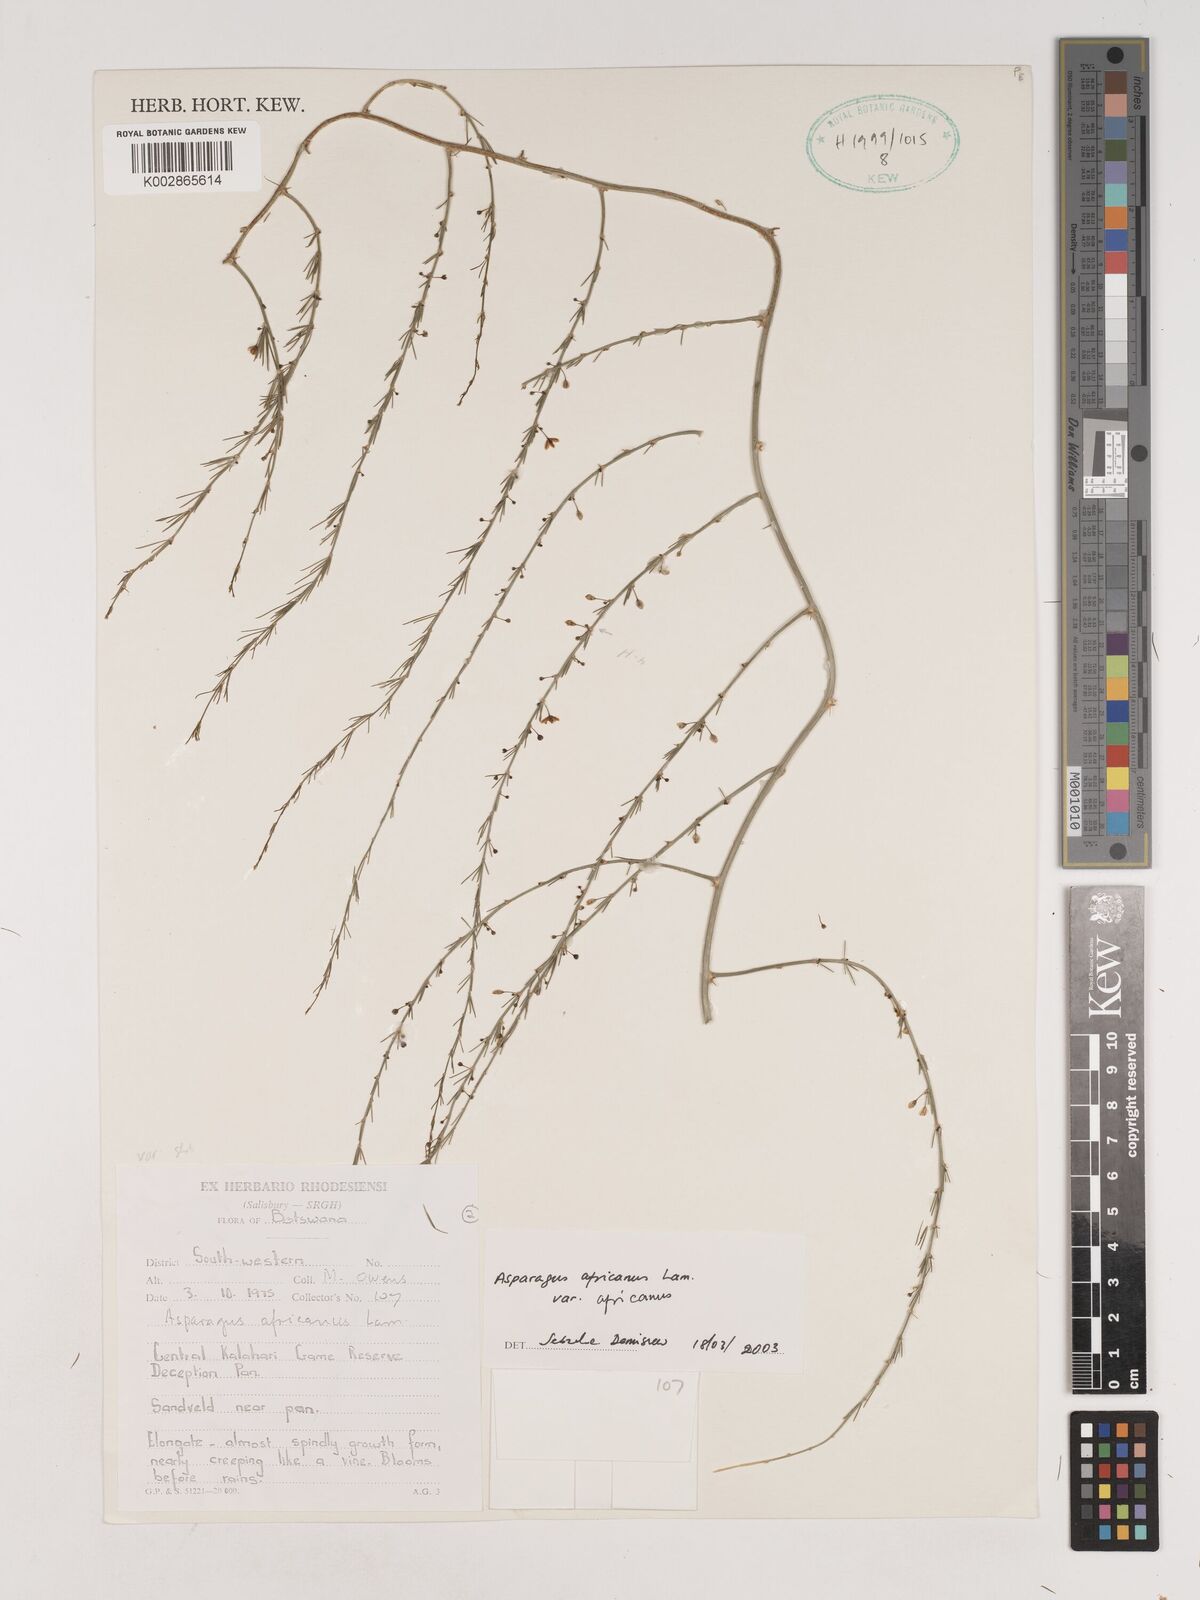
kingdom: Plantae
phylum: Tracheophyta
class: Liliopsida
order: Asparagales
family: Asparagaceae
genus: Asparagus
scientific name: Asparagus africanus
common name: Asparagus-fern
